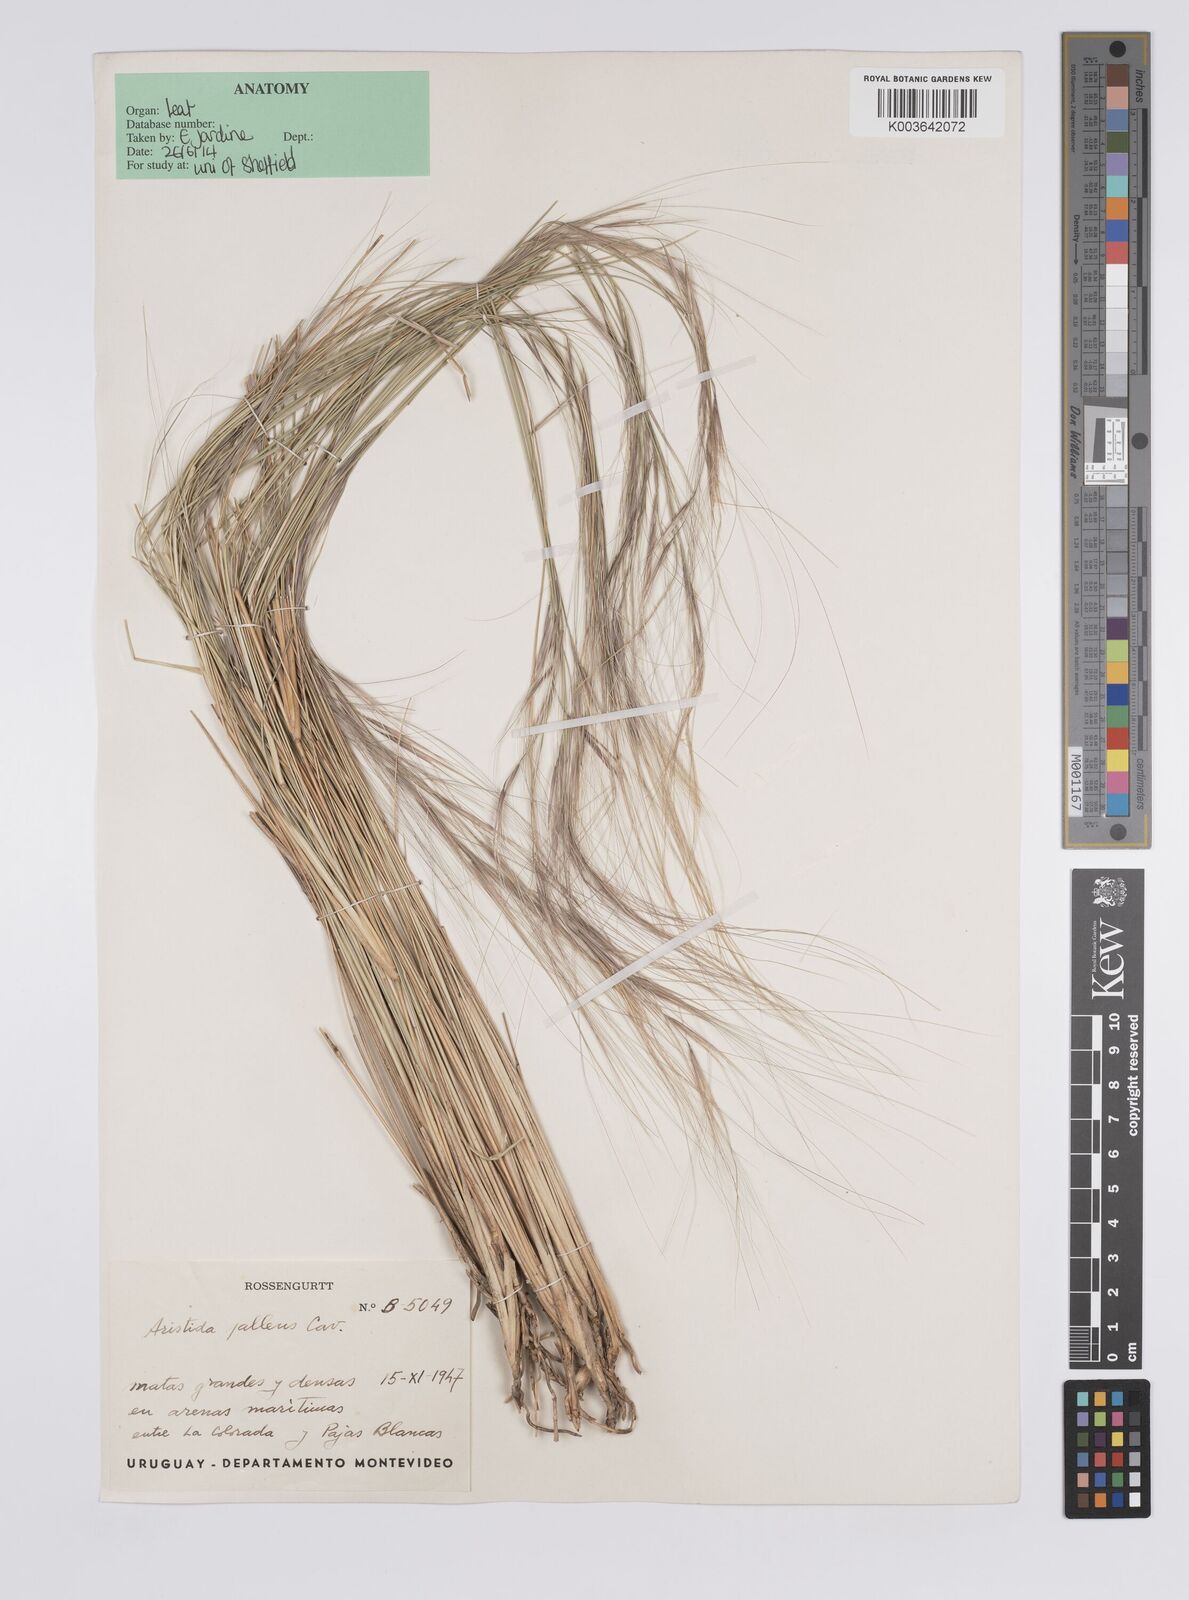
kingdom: Plantae
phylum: Tracheophyta
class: Liliopsida
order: Poales
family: Poaceae
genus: Aristida
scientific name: Aristida pallens
